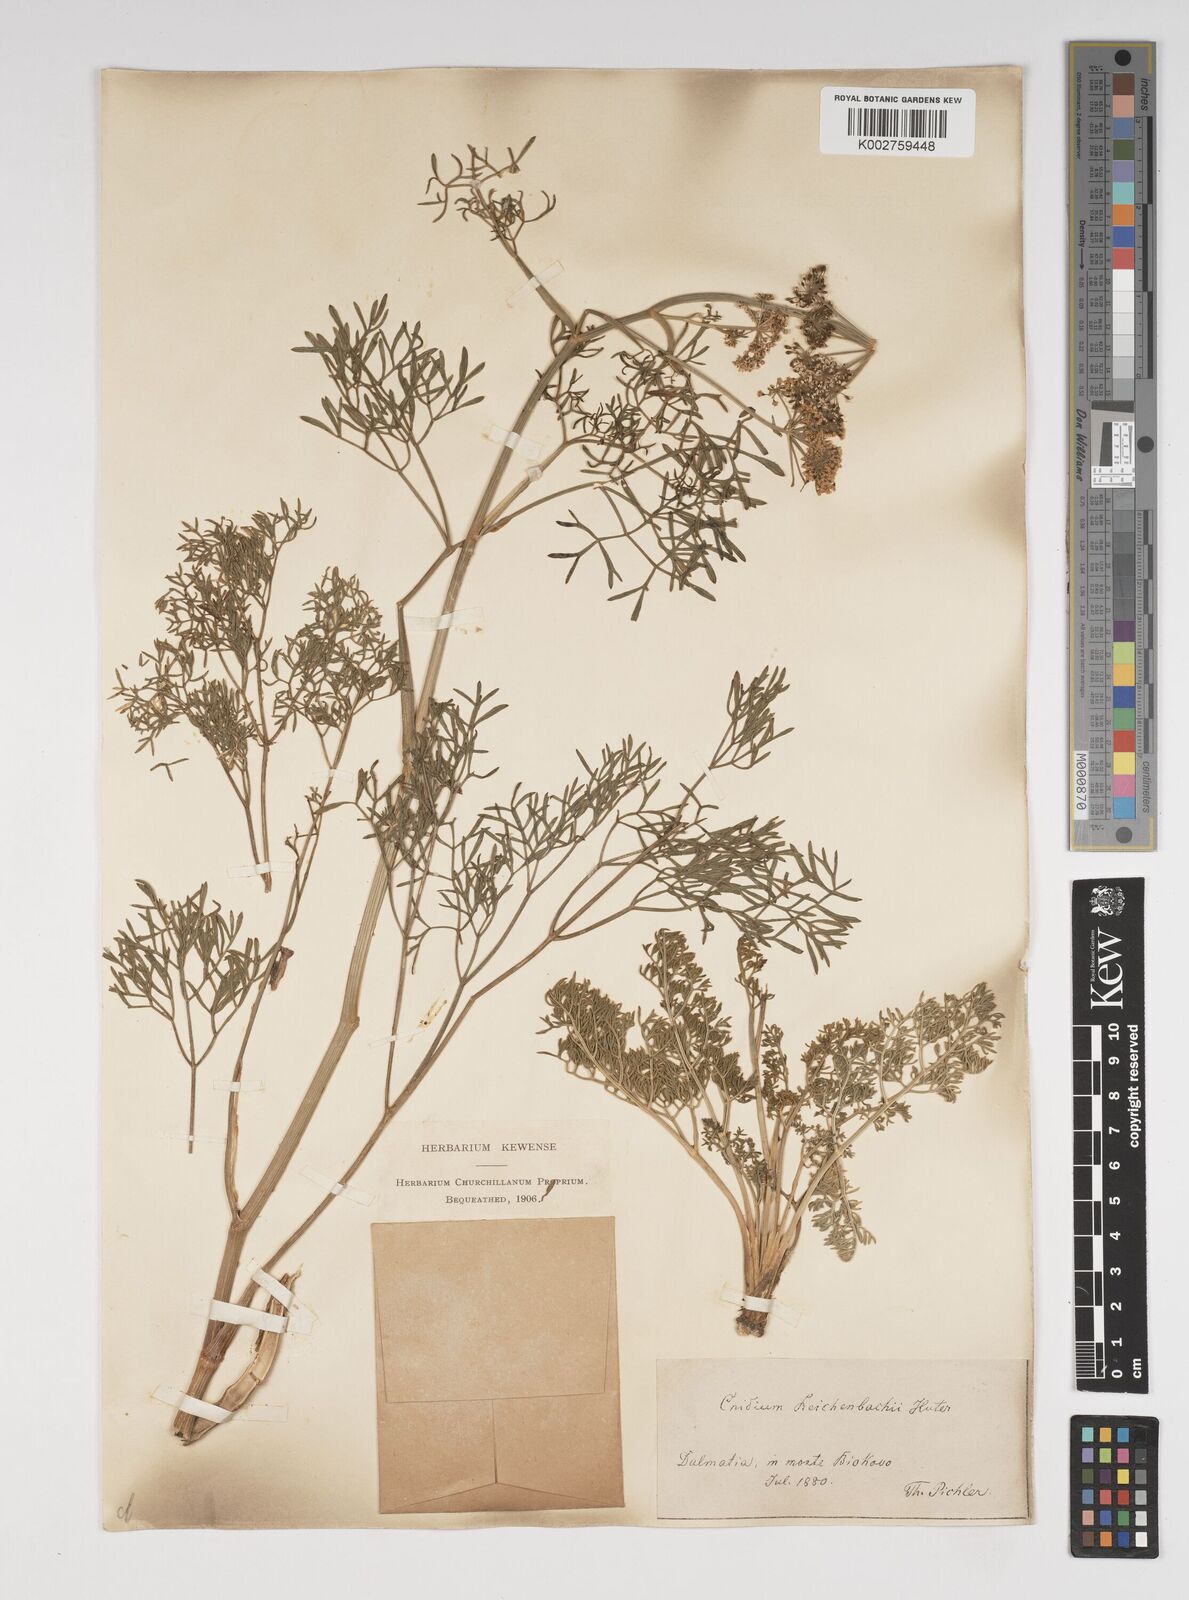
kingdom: Plantae
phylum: Tracheophyta
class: Magnoliopsida
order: Apiales
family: Apiaceae
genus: Selinum
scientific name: Selinum
